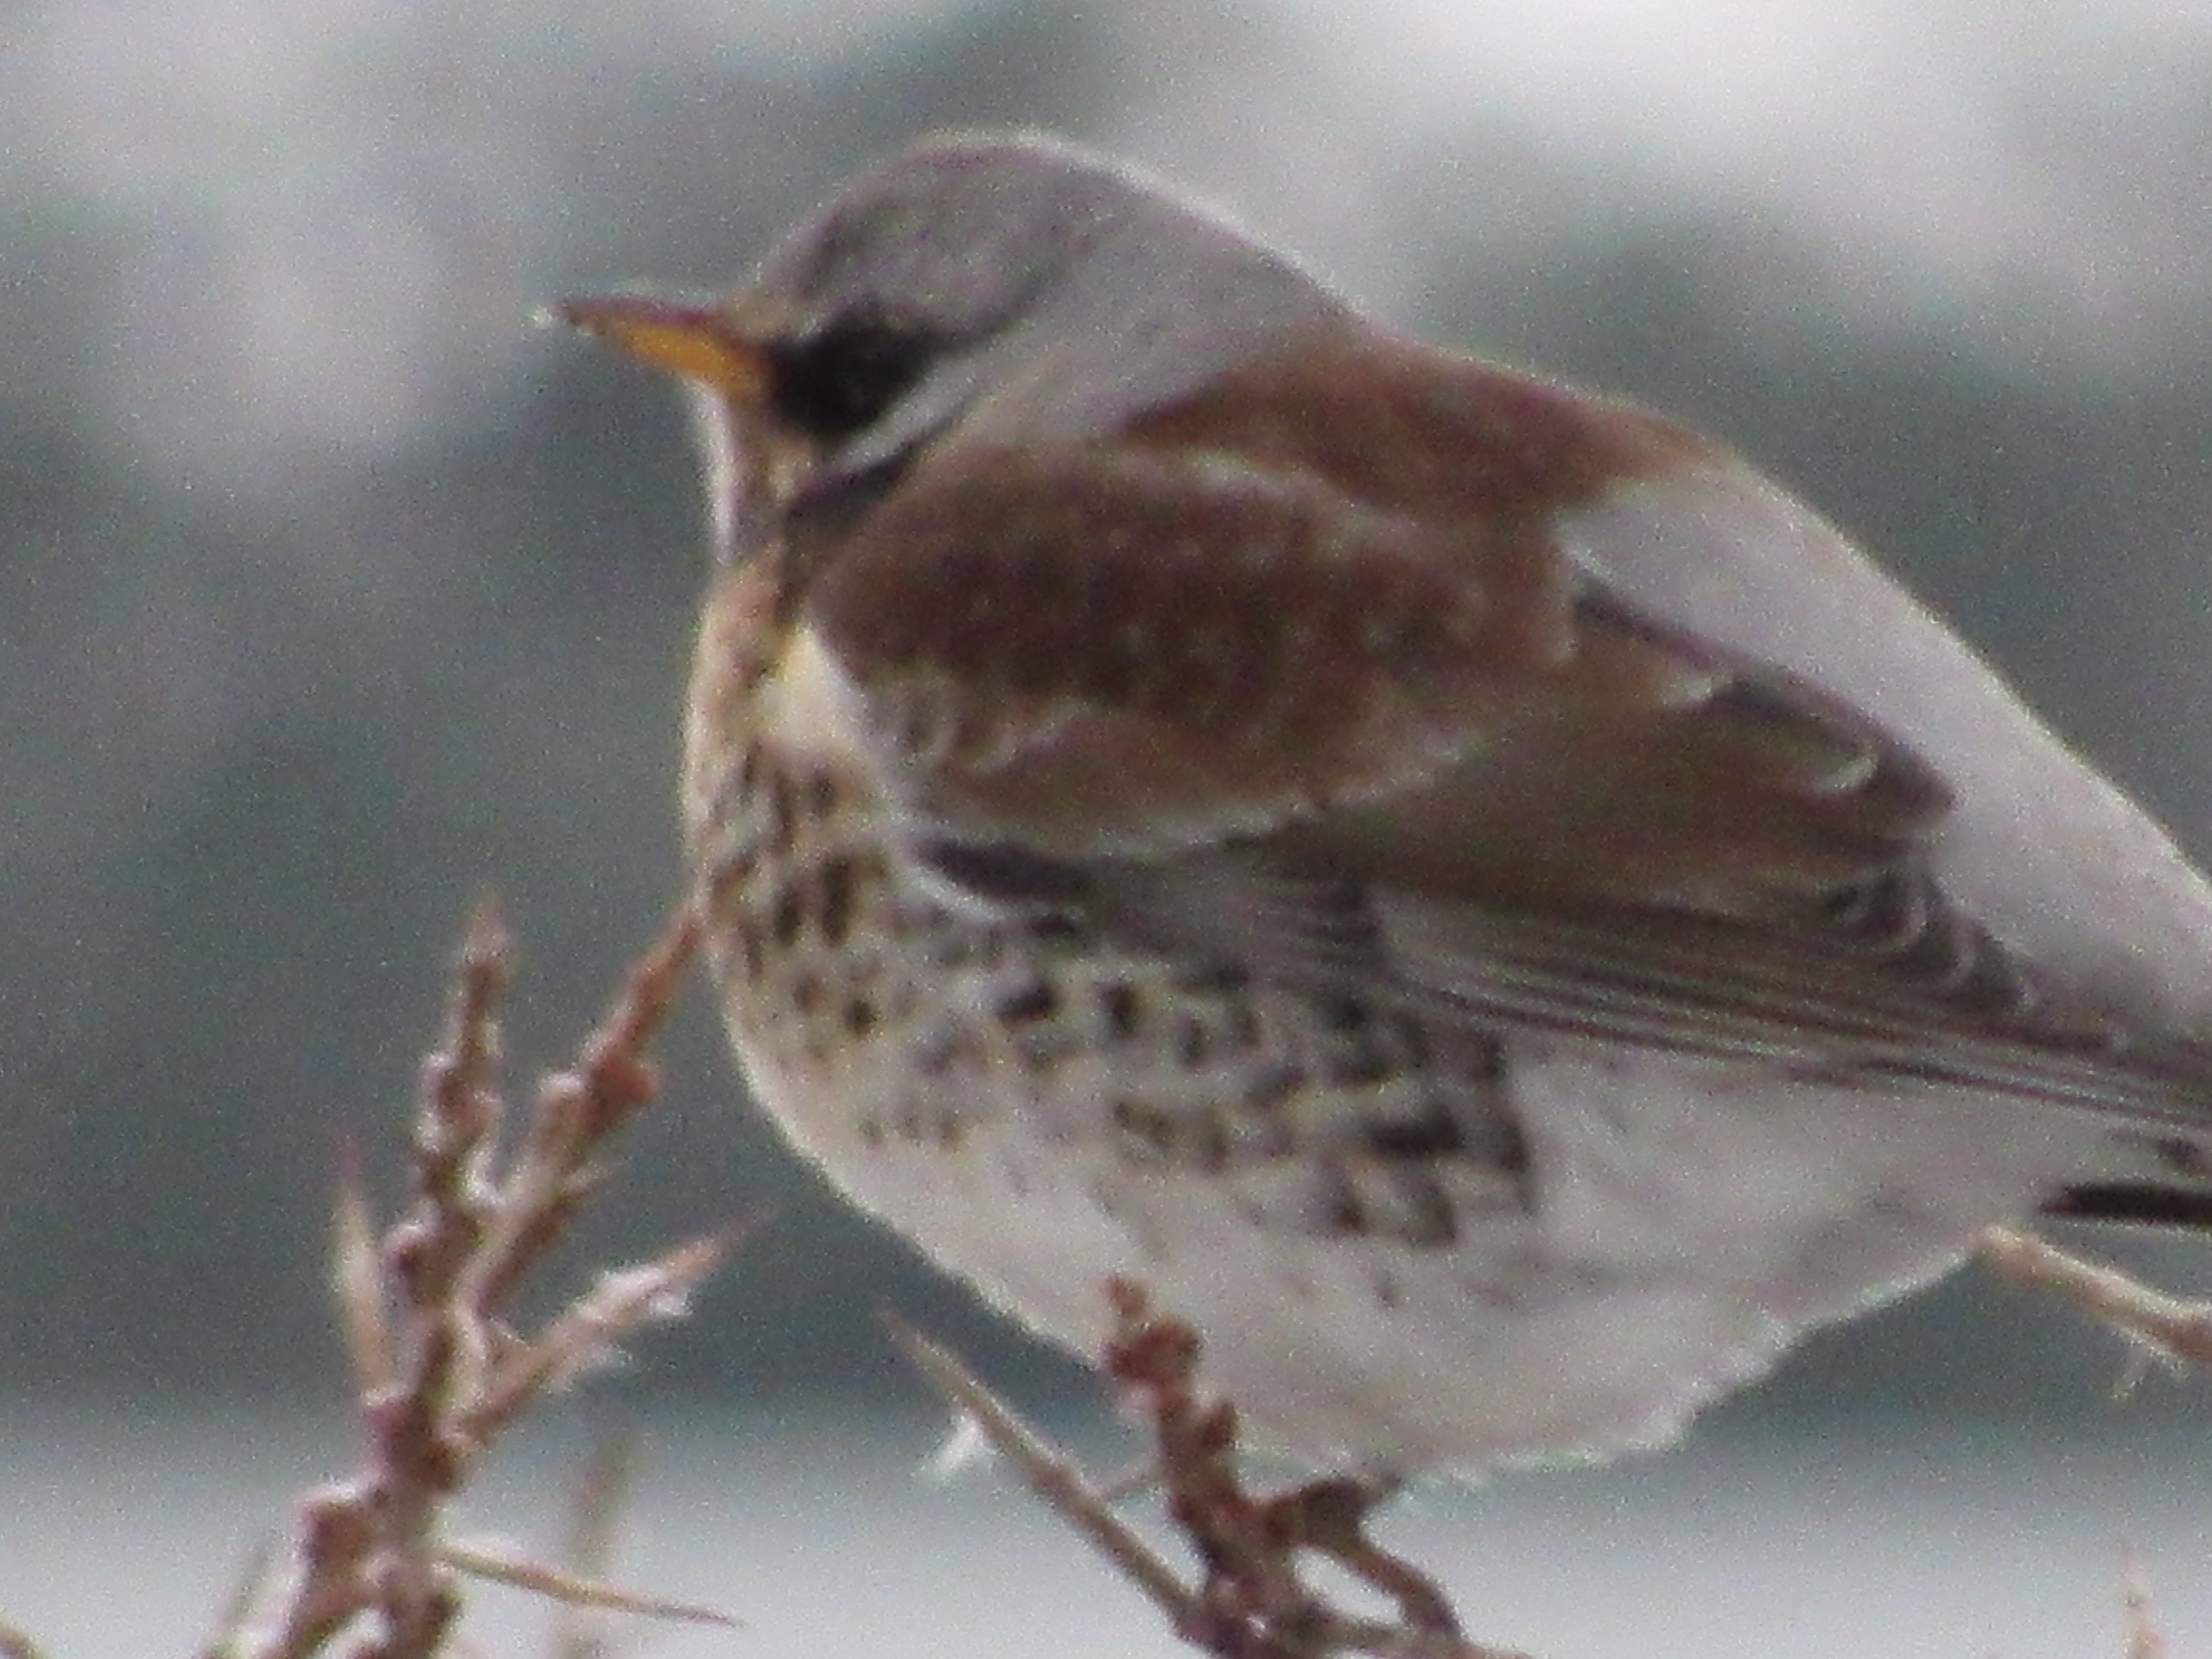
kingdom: Animalia
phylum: Chordata
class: Aves
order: Passeriformes
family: Turdidae
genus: Turdus
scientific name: Turdus pilaris
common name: Sjagger
